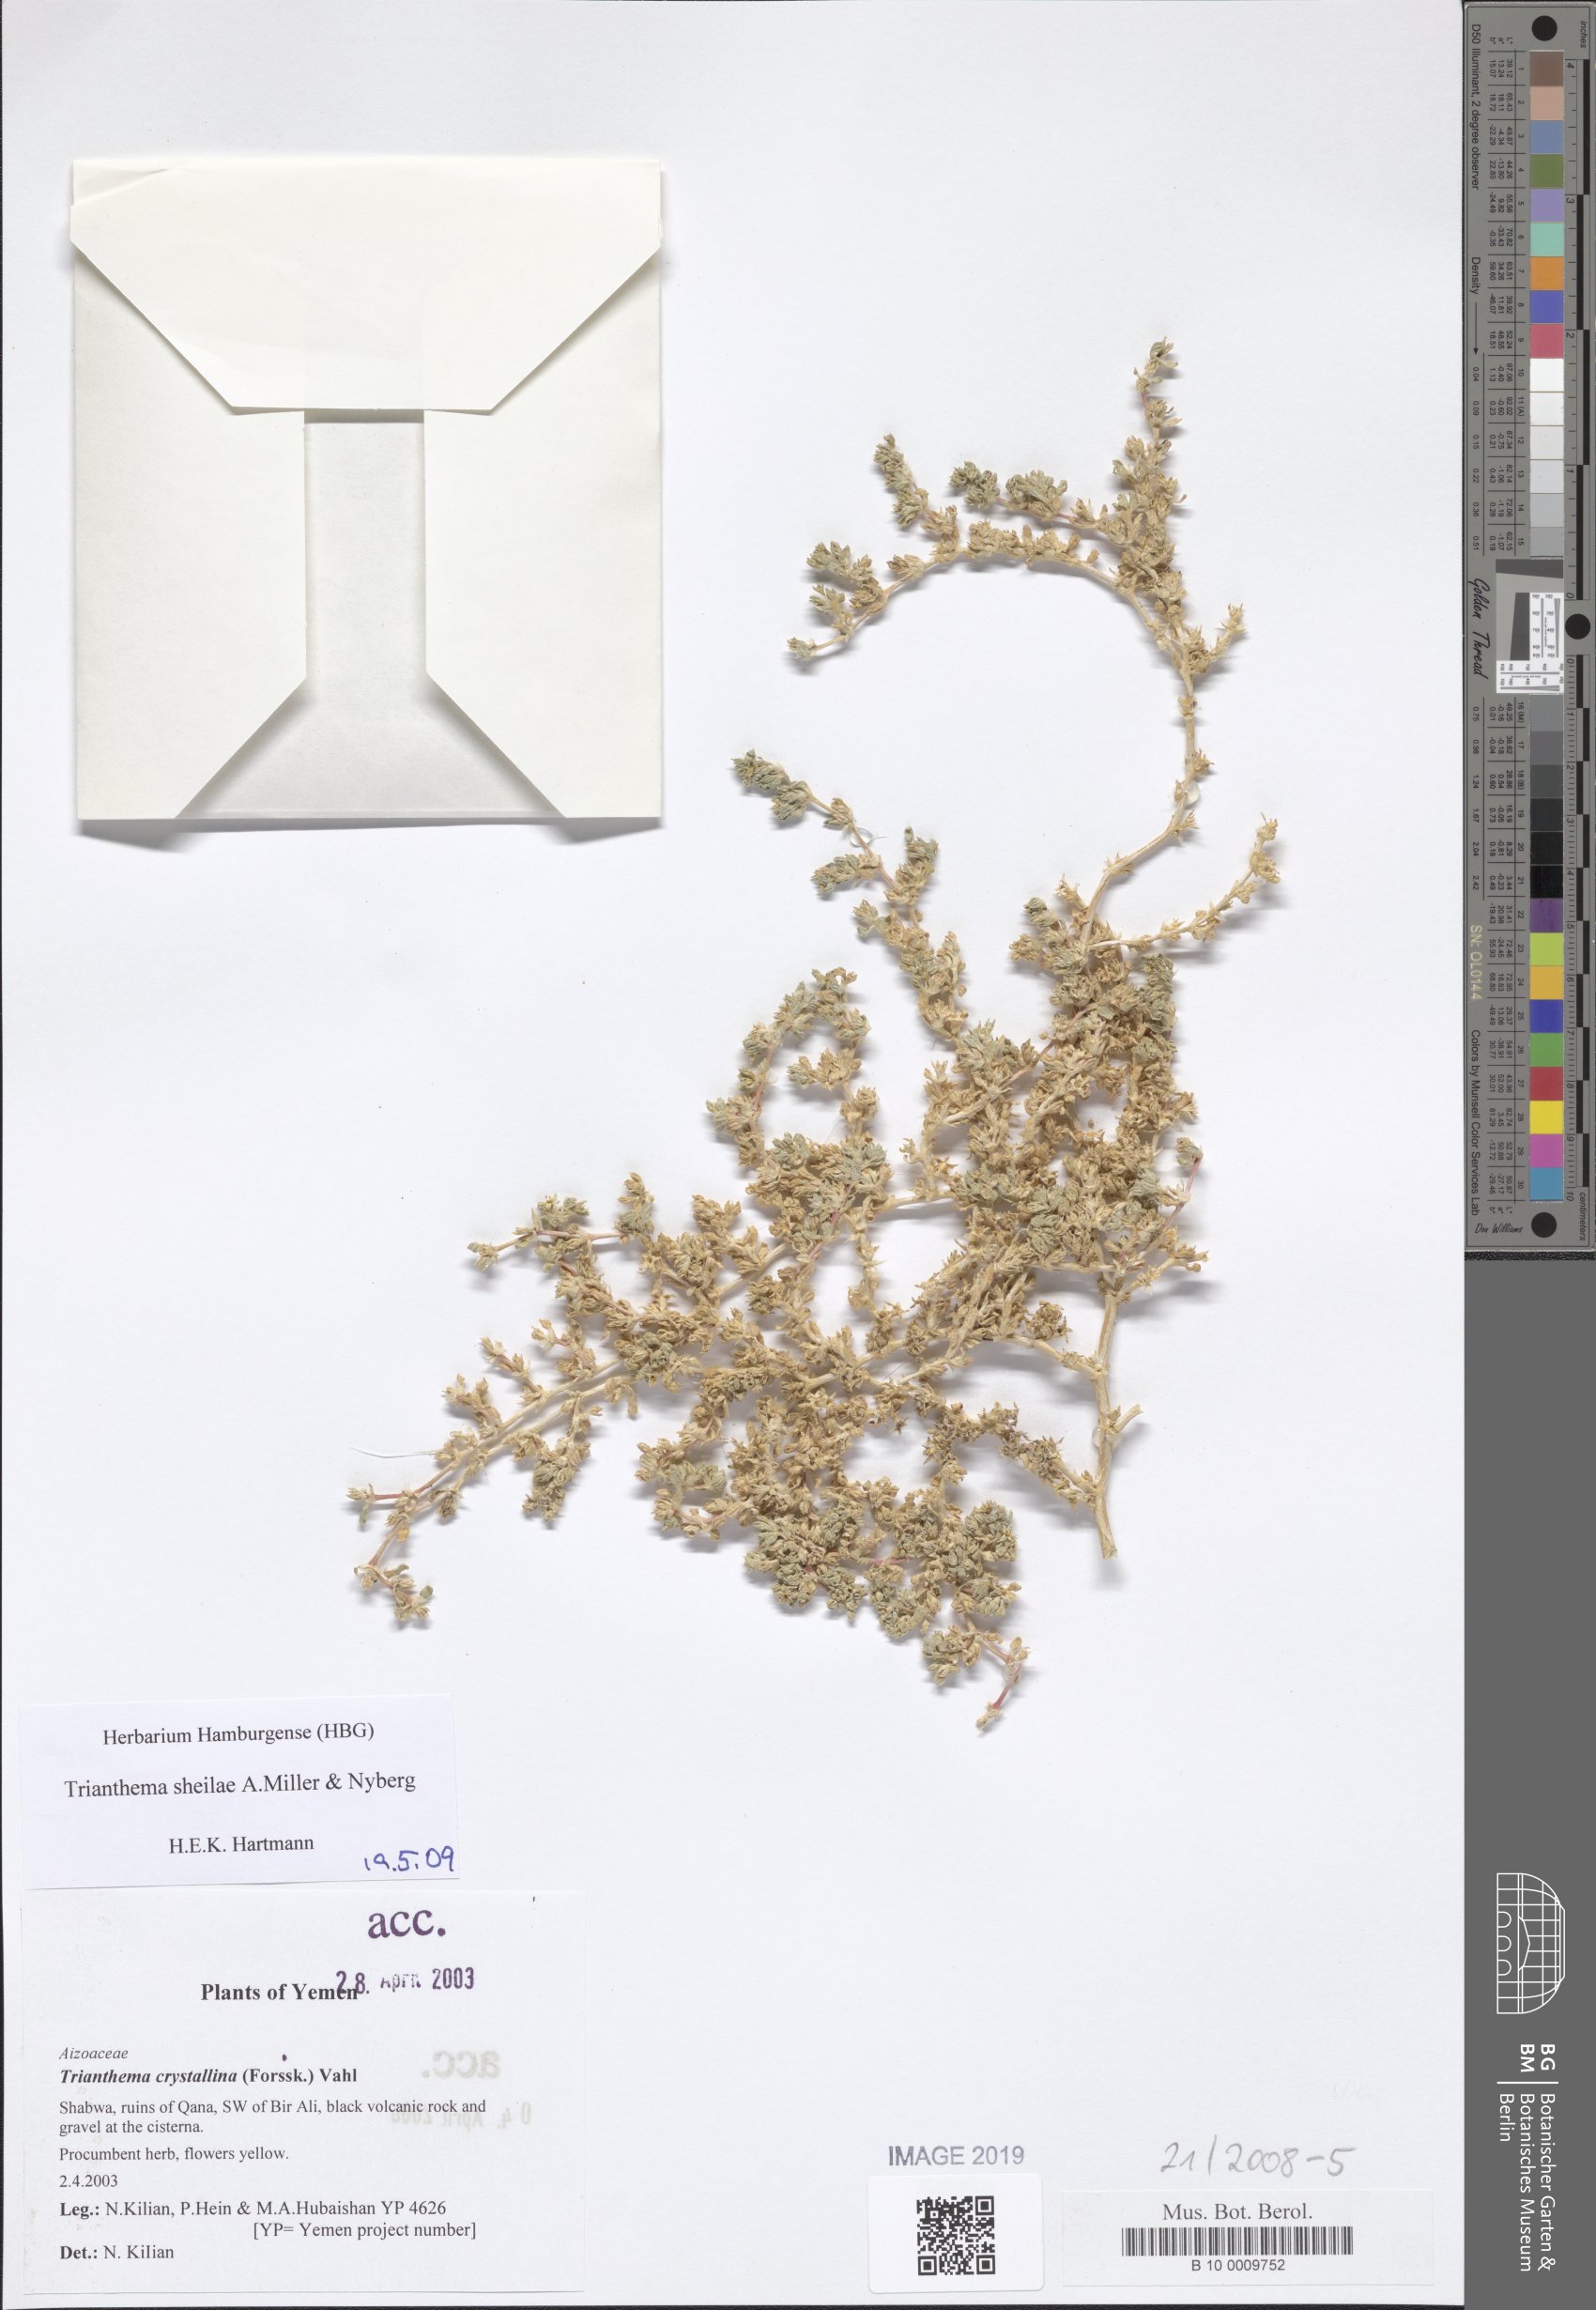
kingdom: Plantae
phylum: Tracheophyta
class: Magnoliopsida
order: Caryophyllales
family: Aizoaceae
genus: Trianthema
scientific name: Trianthema sheilae
